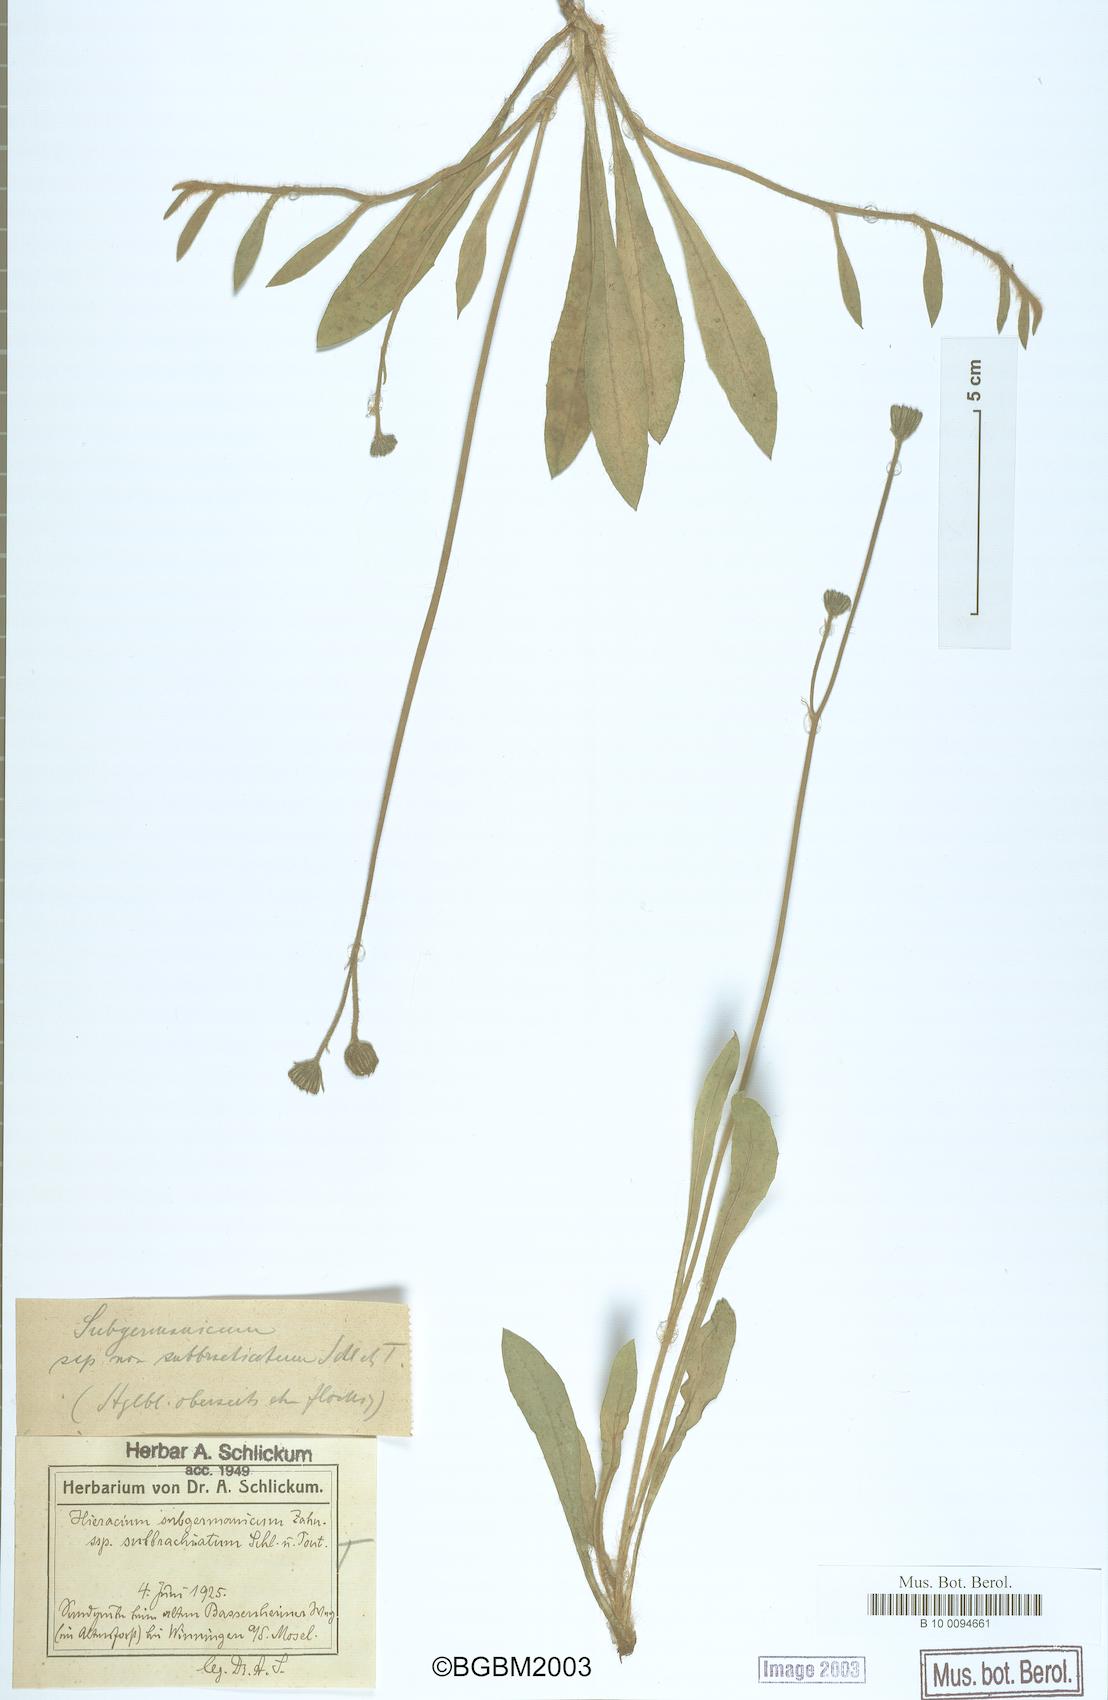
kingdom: Plantae
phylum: Tracheophyta
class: Magnoliopsida
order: Asterales
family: Asteraceae
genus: Pilosella
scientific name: Pilosella pilosellina
